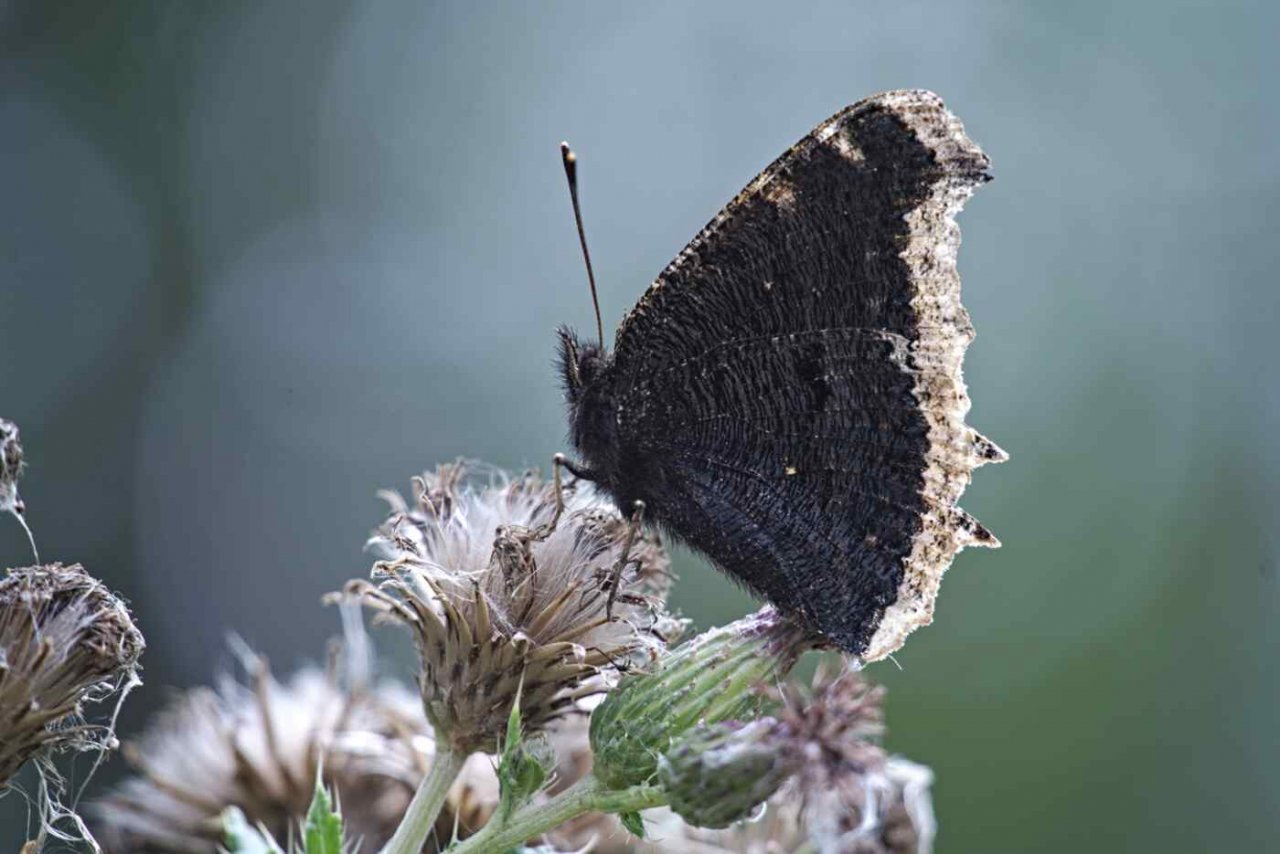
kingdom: Animalia
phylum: Arthropoda
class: Insecta
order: Lepidoptera
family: Nymphalidae
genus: Nymphalis
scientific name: Nymphalis antiopa
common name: Mourning Cloak
